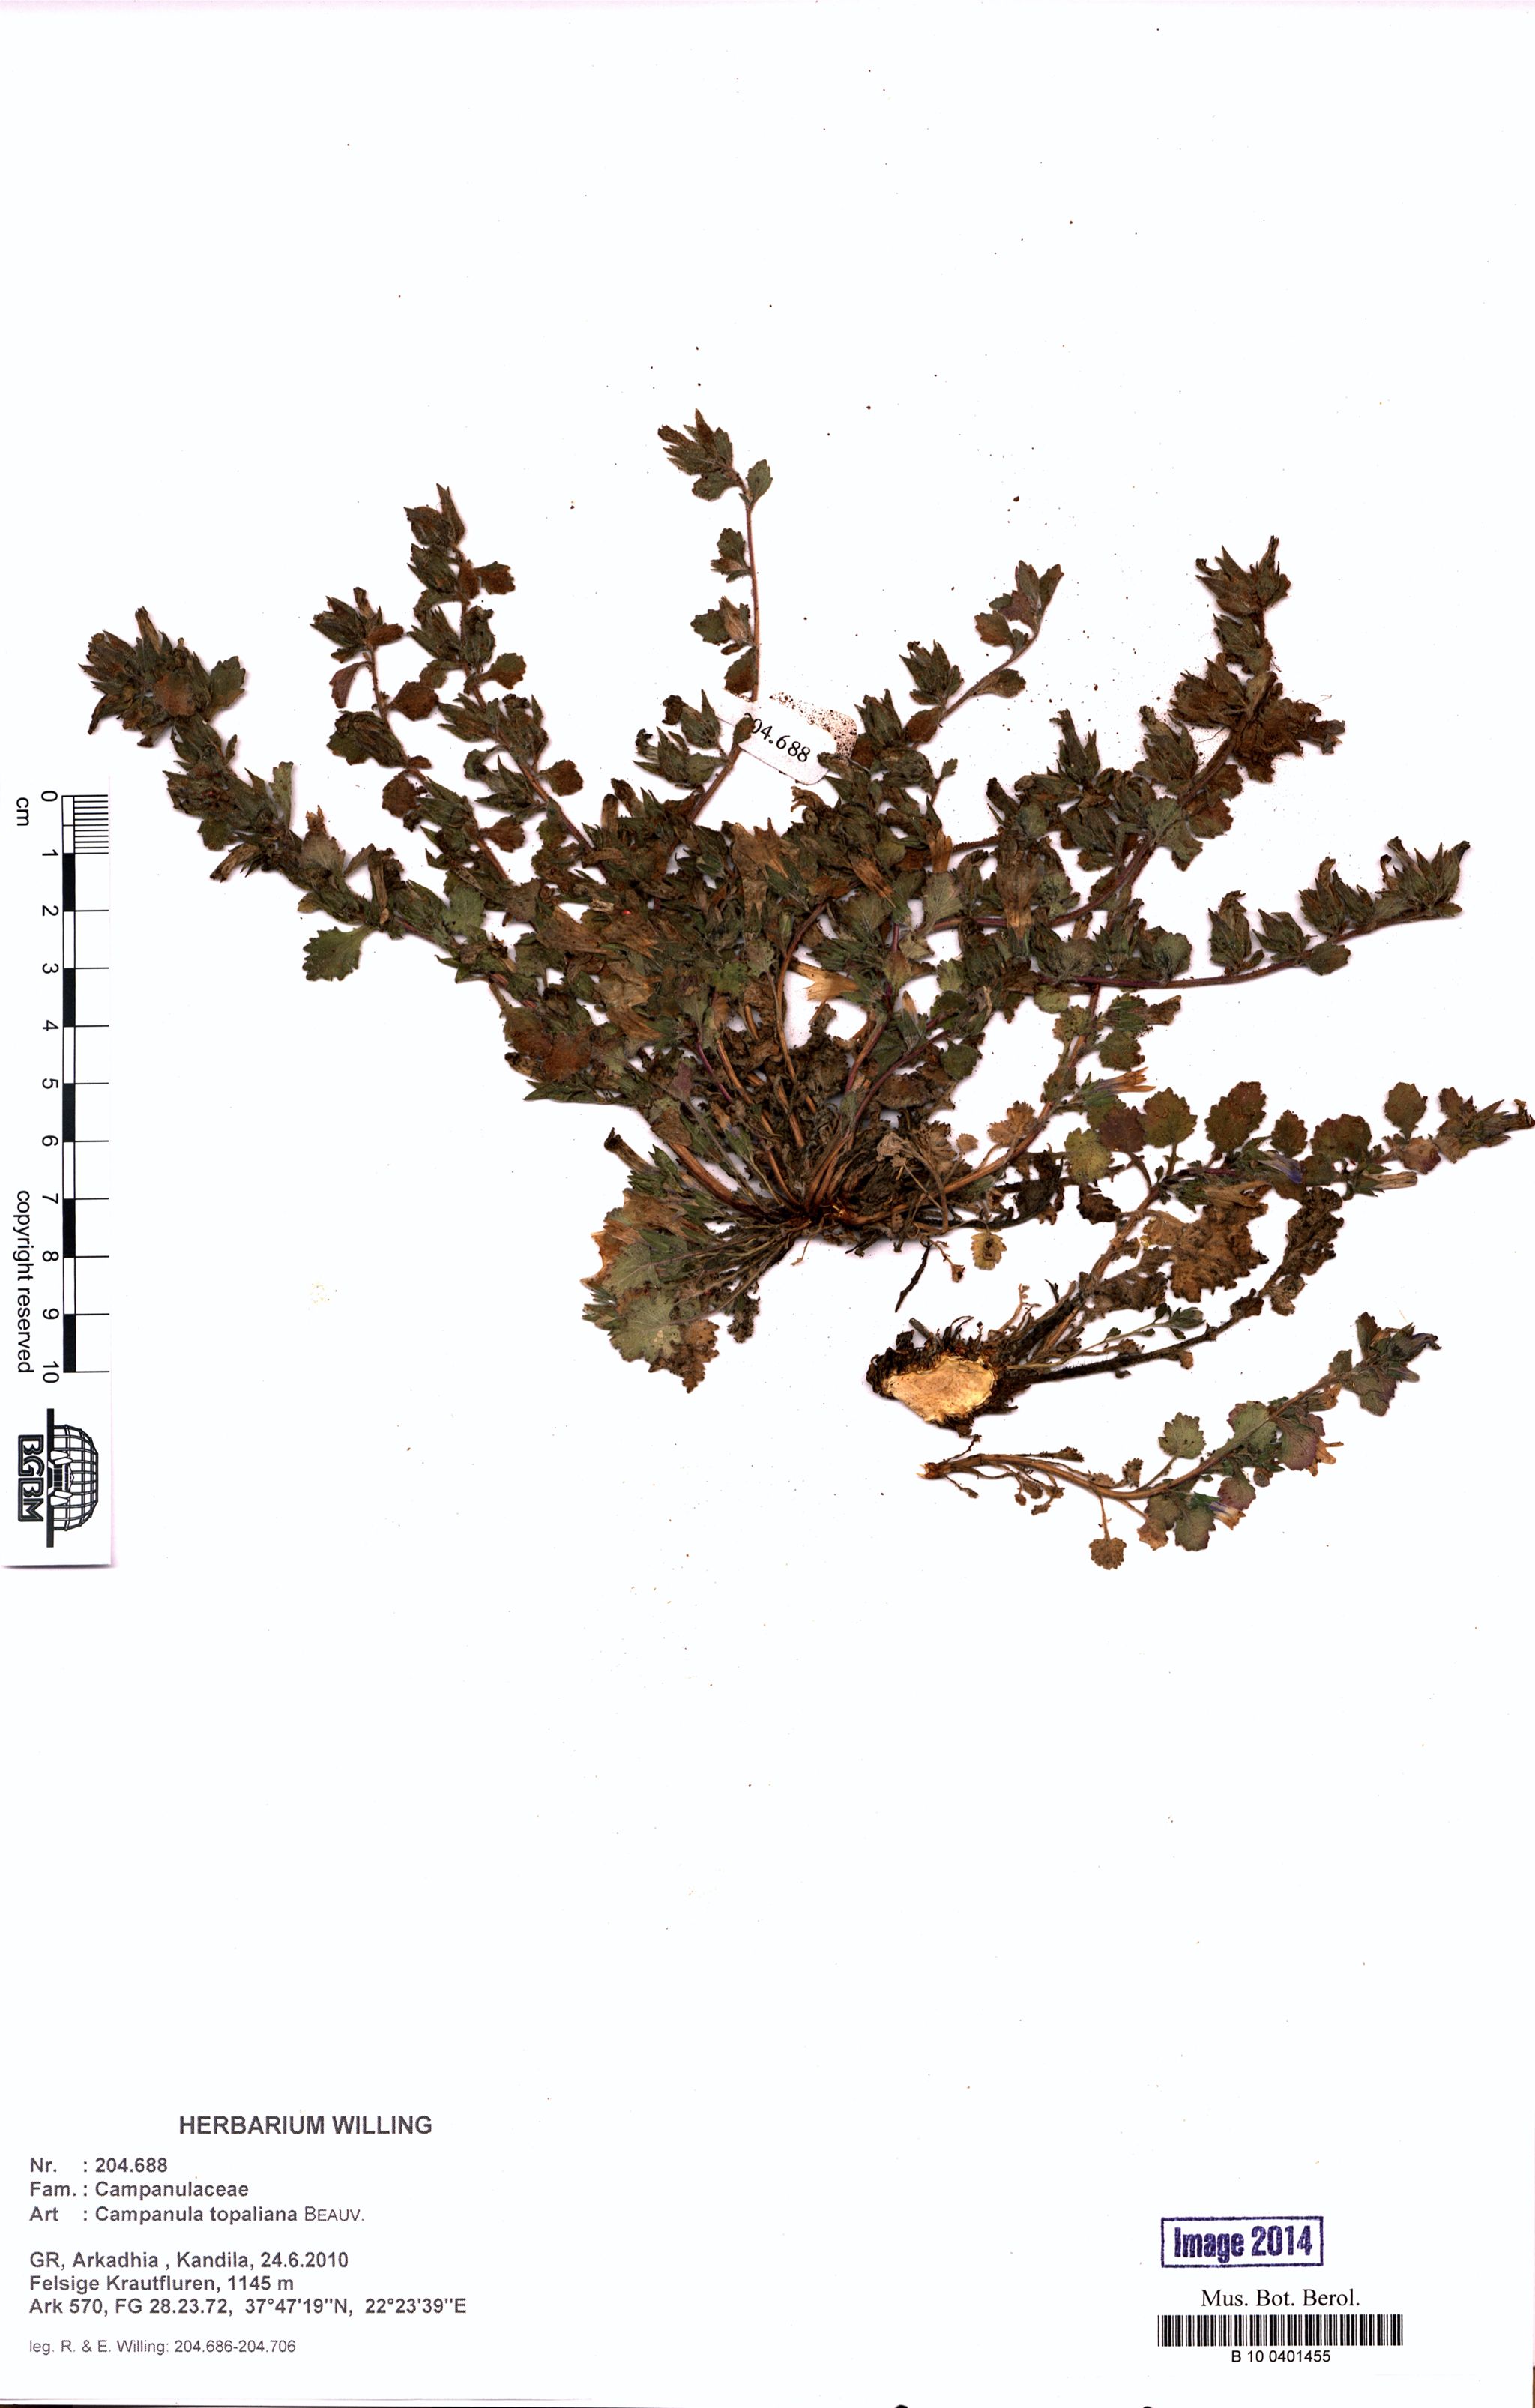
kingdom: Plantae
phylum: Tracheophyta
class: Magnoliopsida
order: Asterales
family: Campanulaceae
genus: Campanula
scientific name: Campanula topaliana
